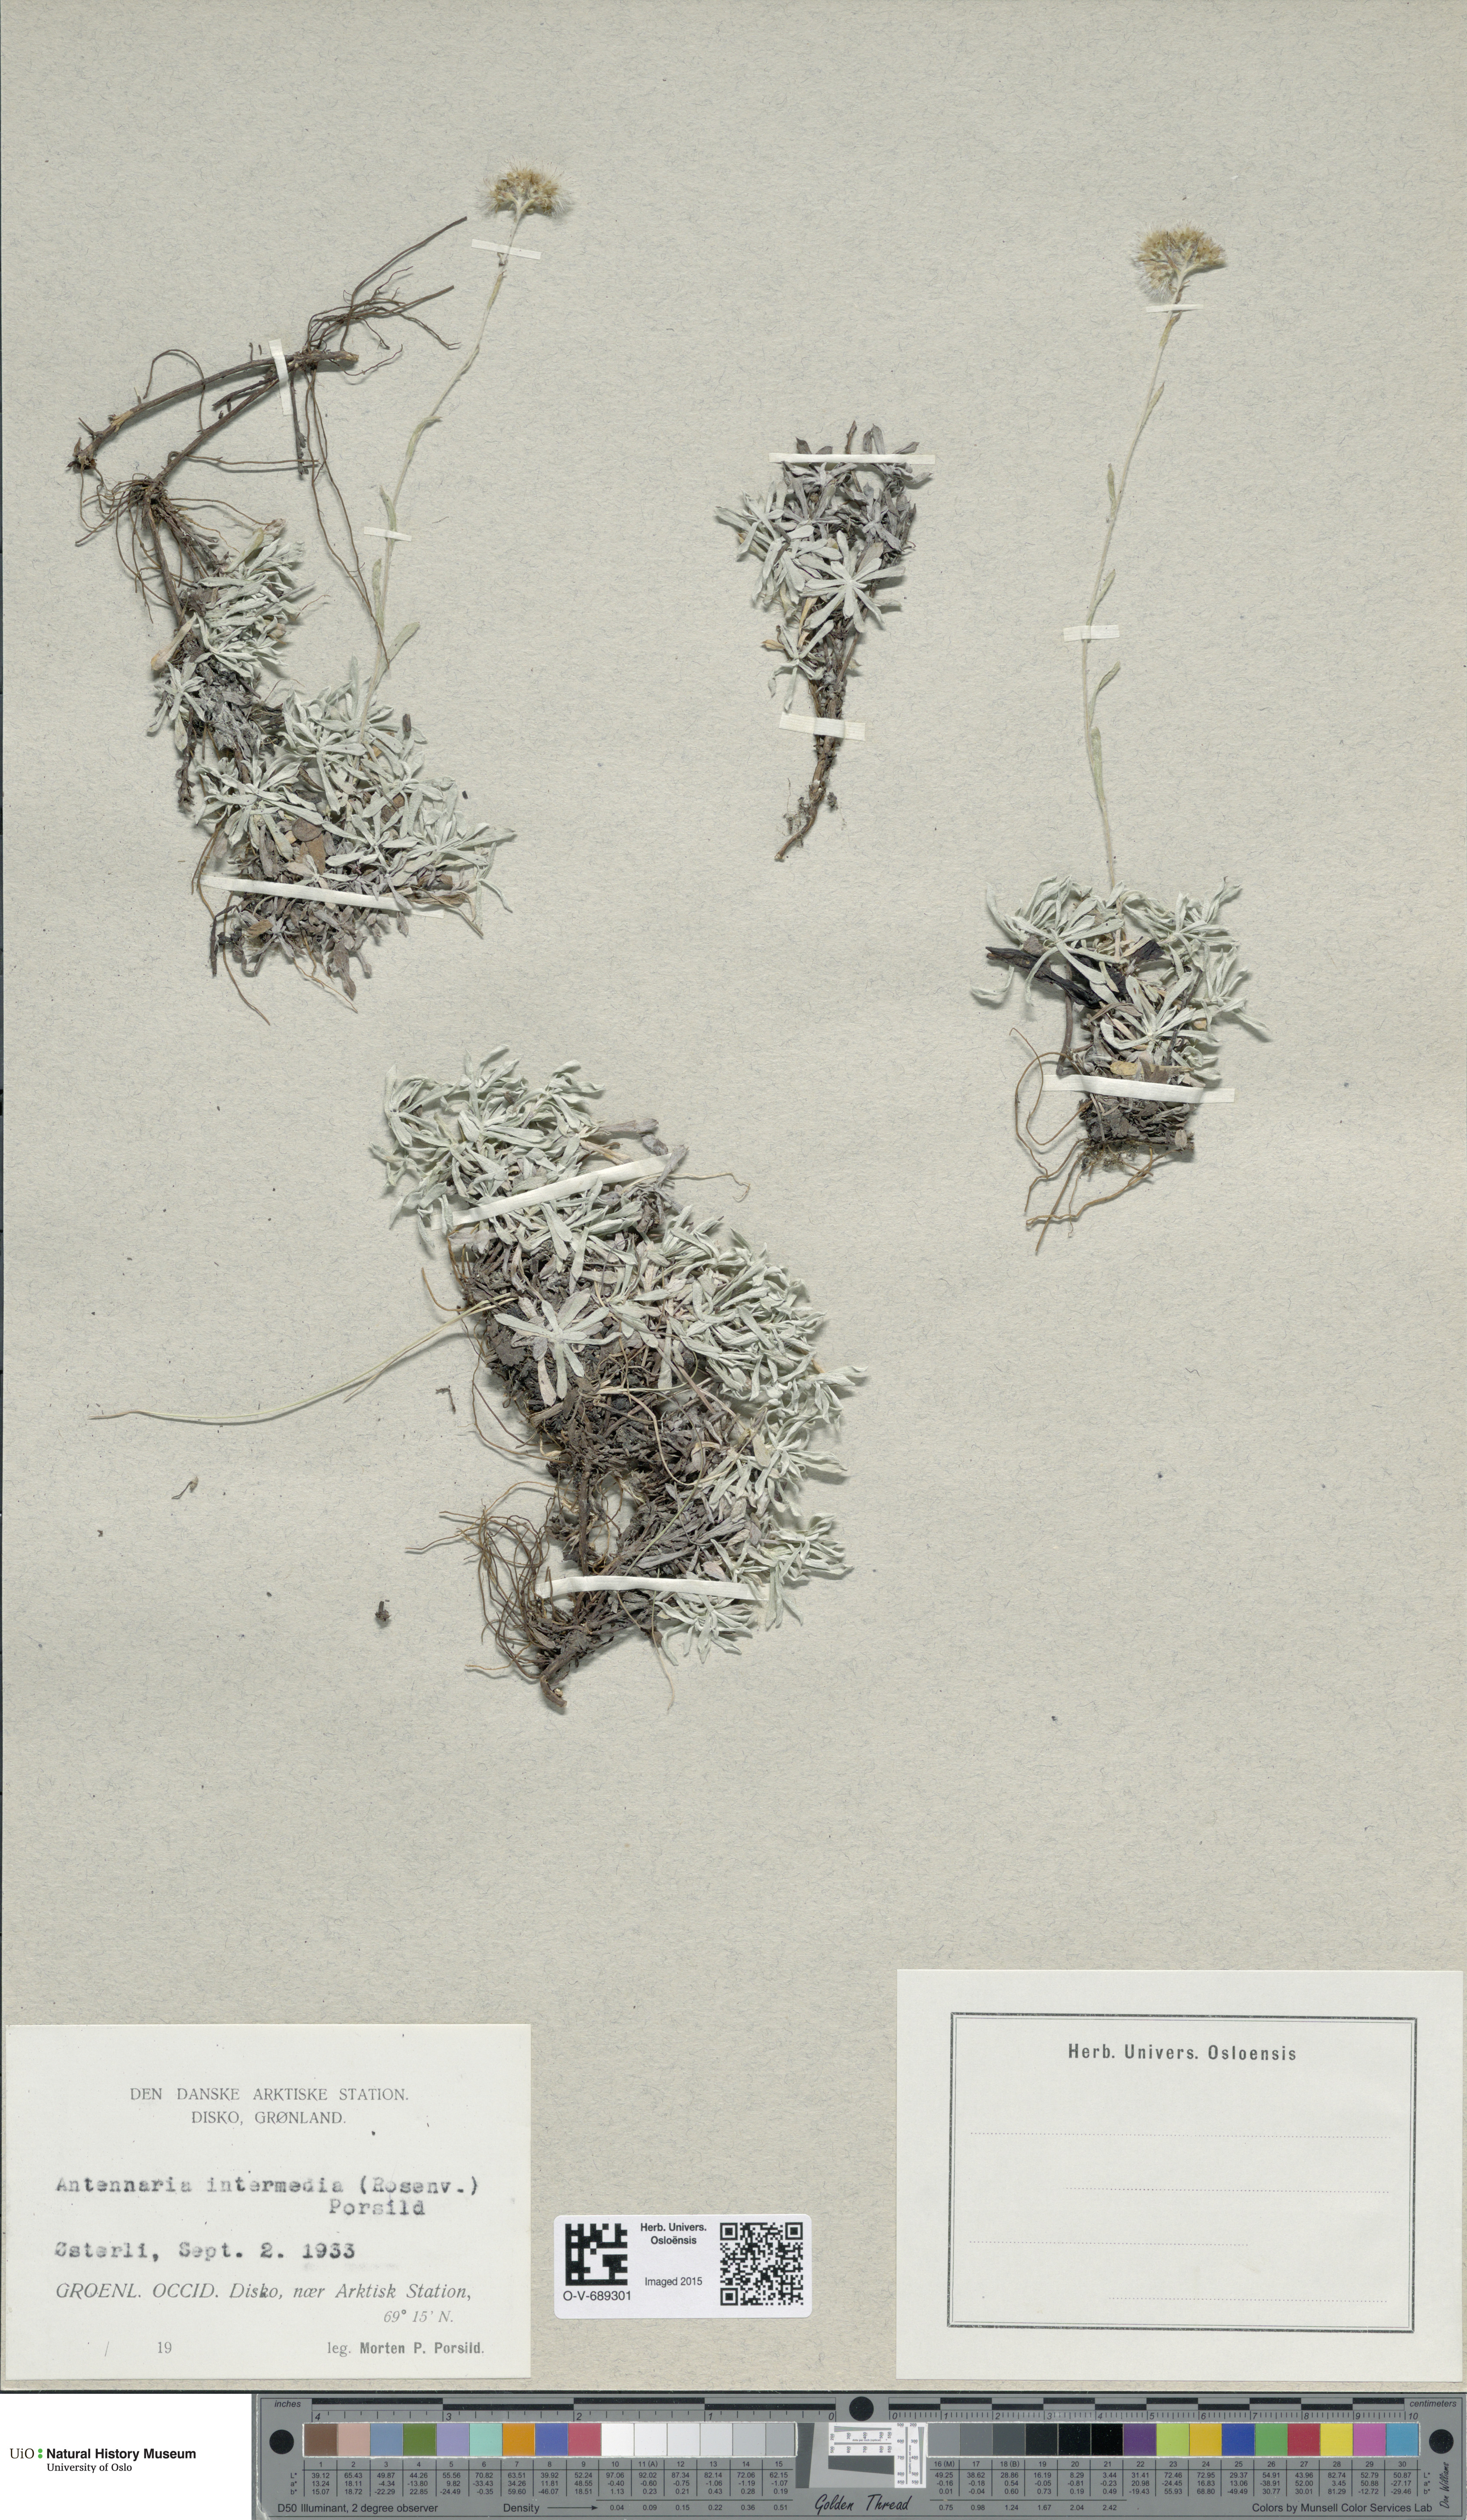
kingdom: Plantae
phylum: Tracheophyta
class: Magnoliopsida
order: Asterales
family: Asteraceae
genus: Antennaria
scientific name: Antennaria rosea
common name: Rosy pussytoes
